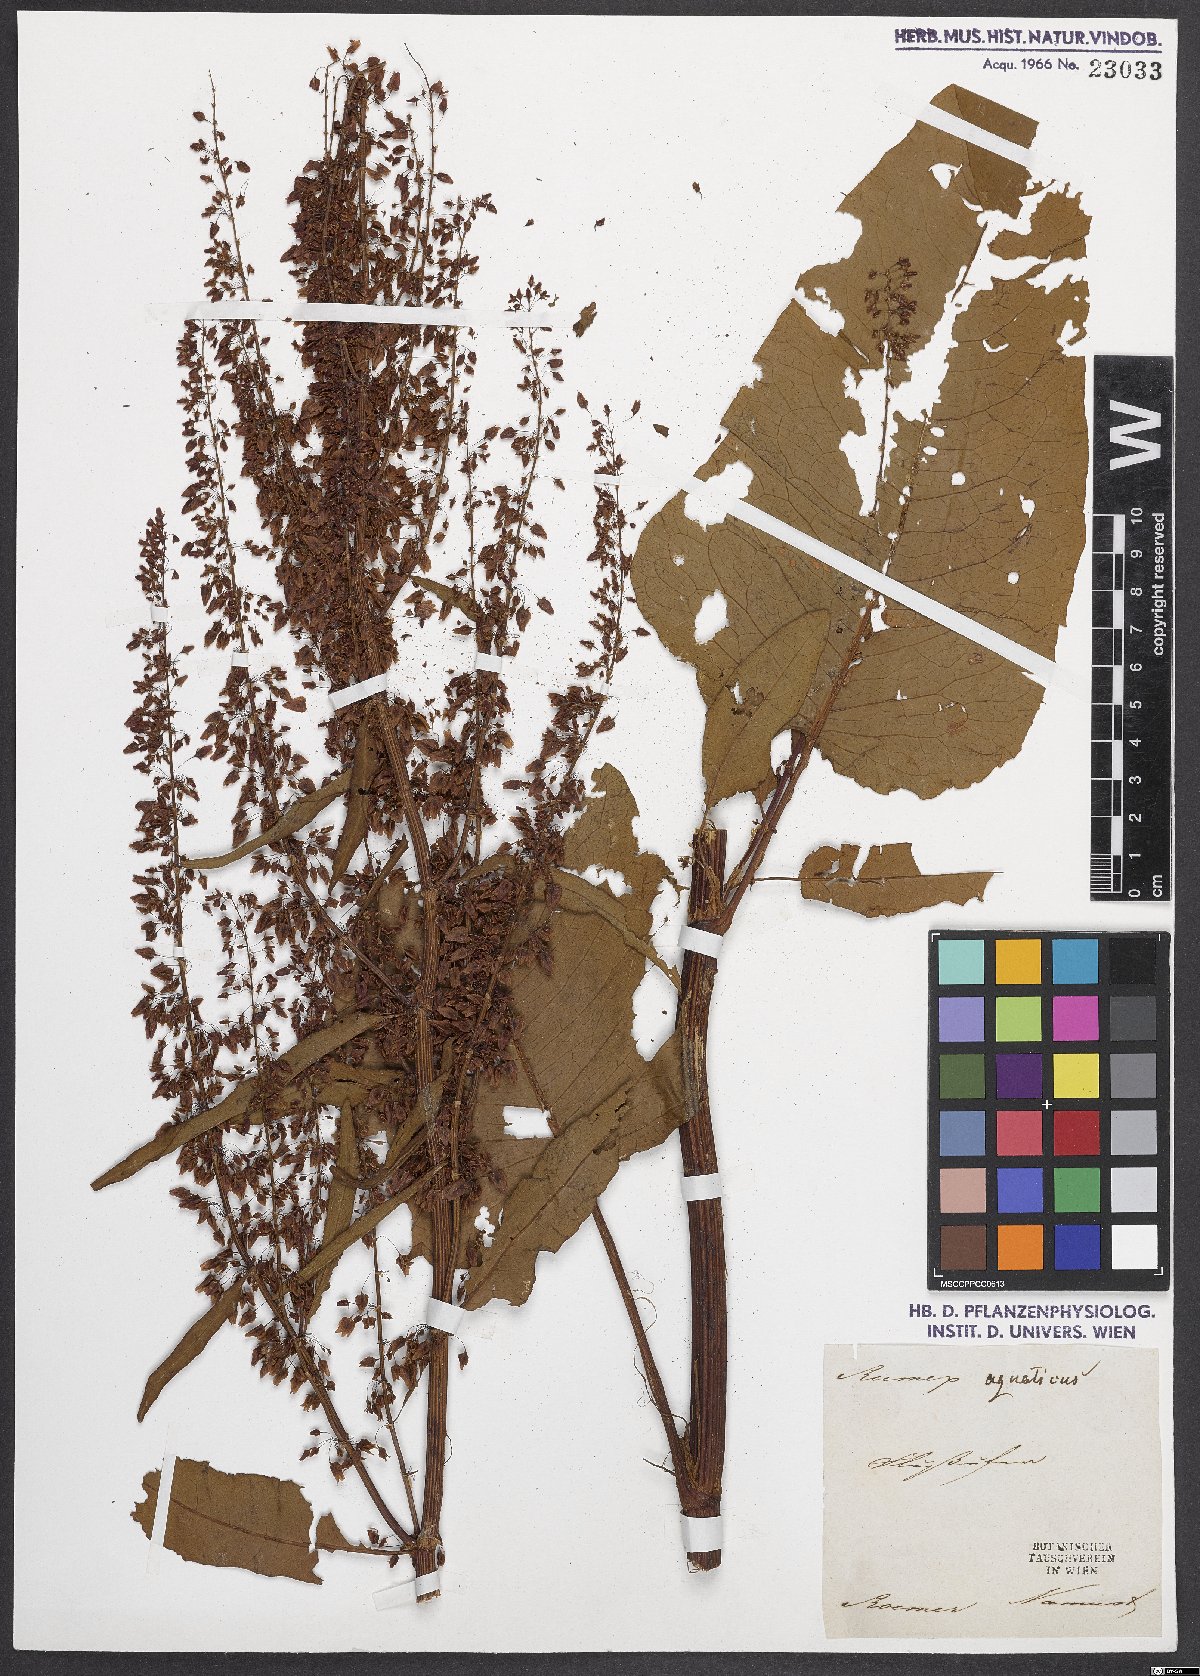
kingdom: Plantae
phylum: Tracheophyta
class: Magnoliopsida
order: Caryophyllales
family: Polygonaceae
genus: Rumex
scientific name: Rumex aquaticus
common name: Scottish dock
